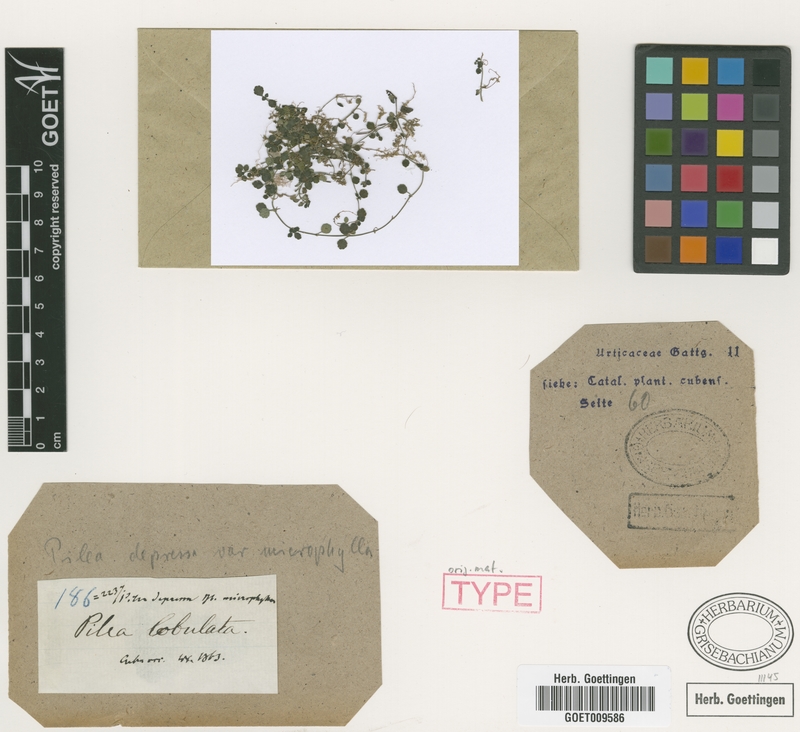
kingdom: Plantae
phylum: Tracheophyta
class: Magnoliopsida
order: Rosales
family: Urticaceae
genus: Pilea
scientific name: Pilea depressa
